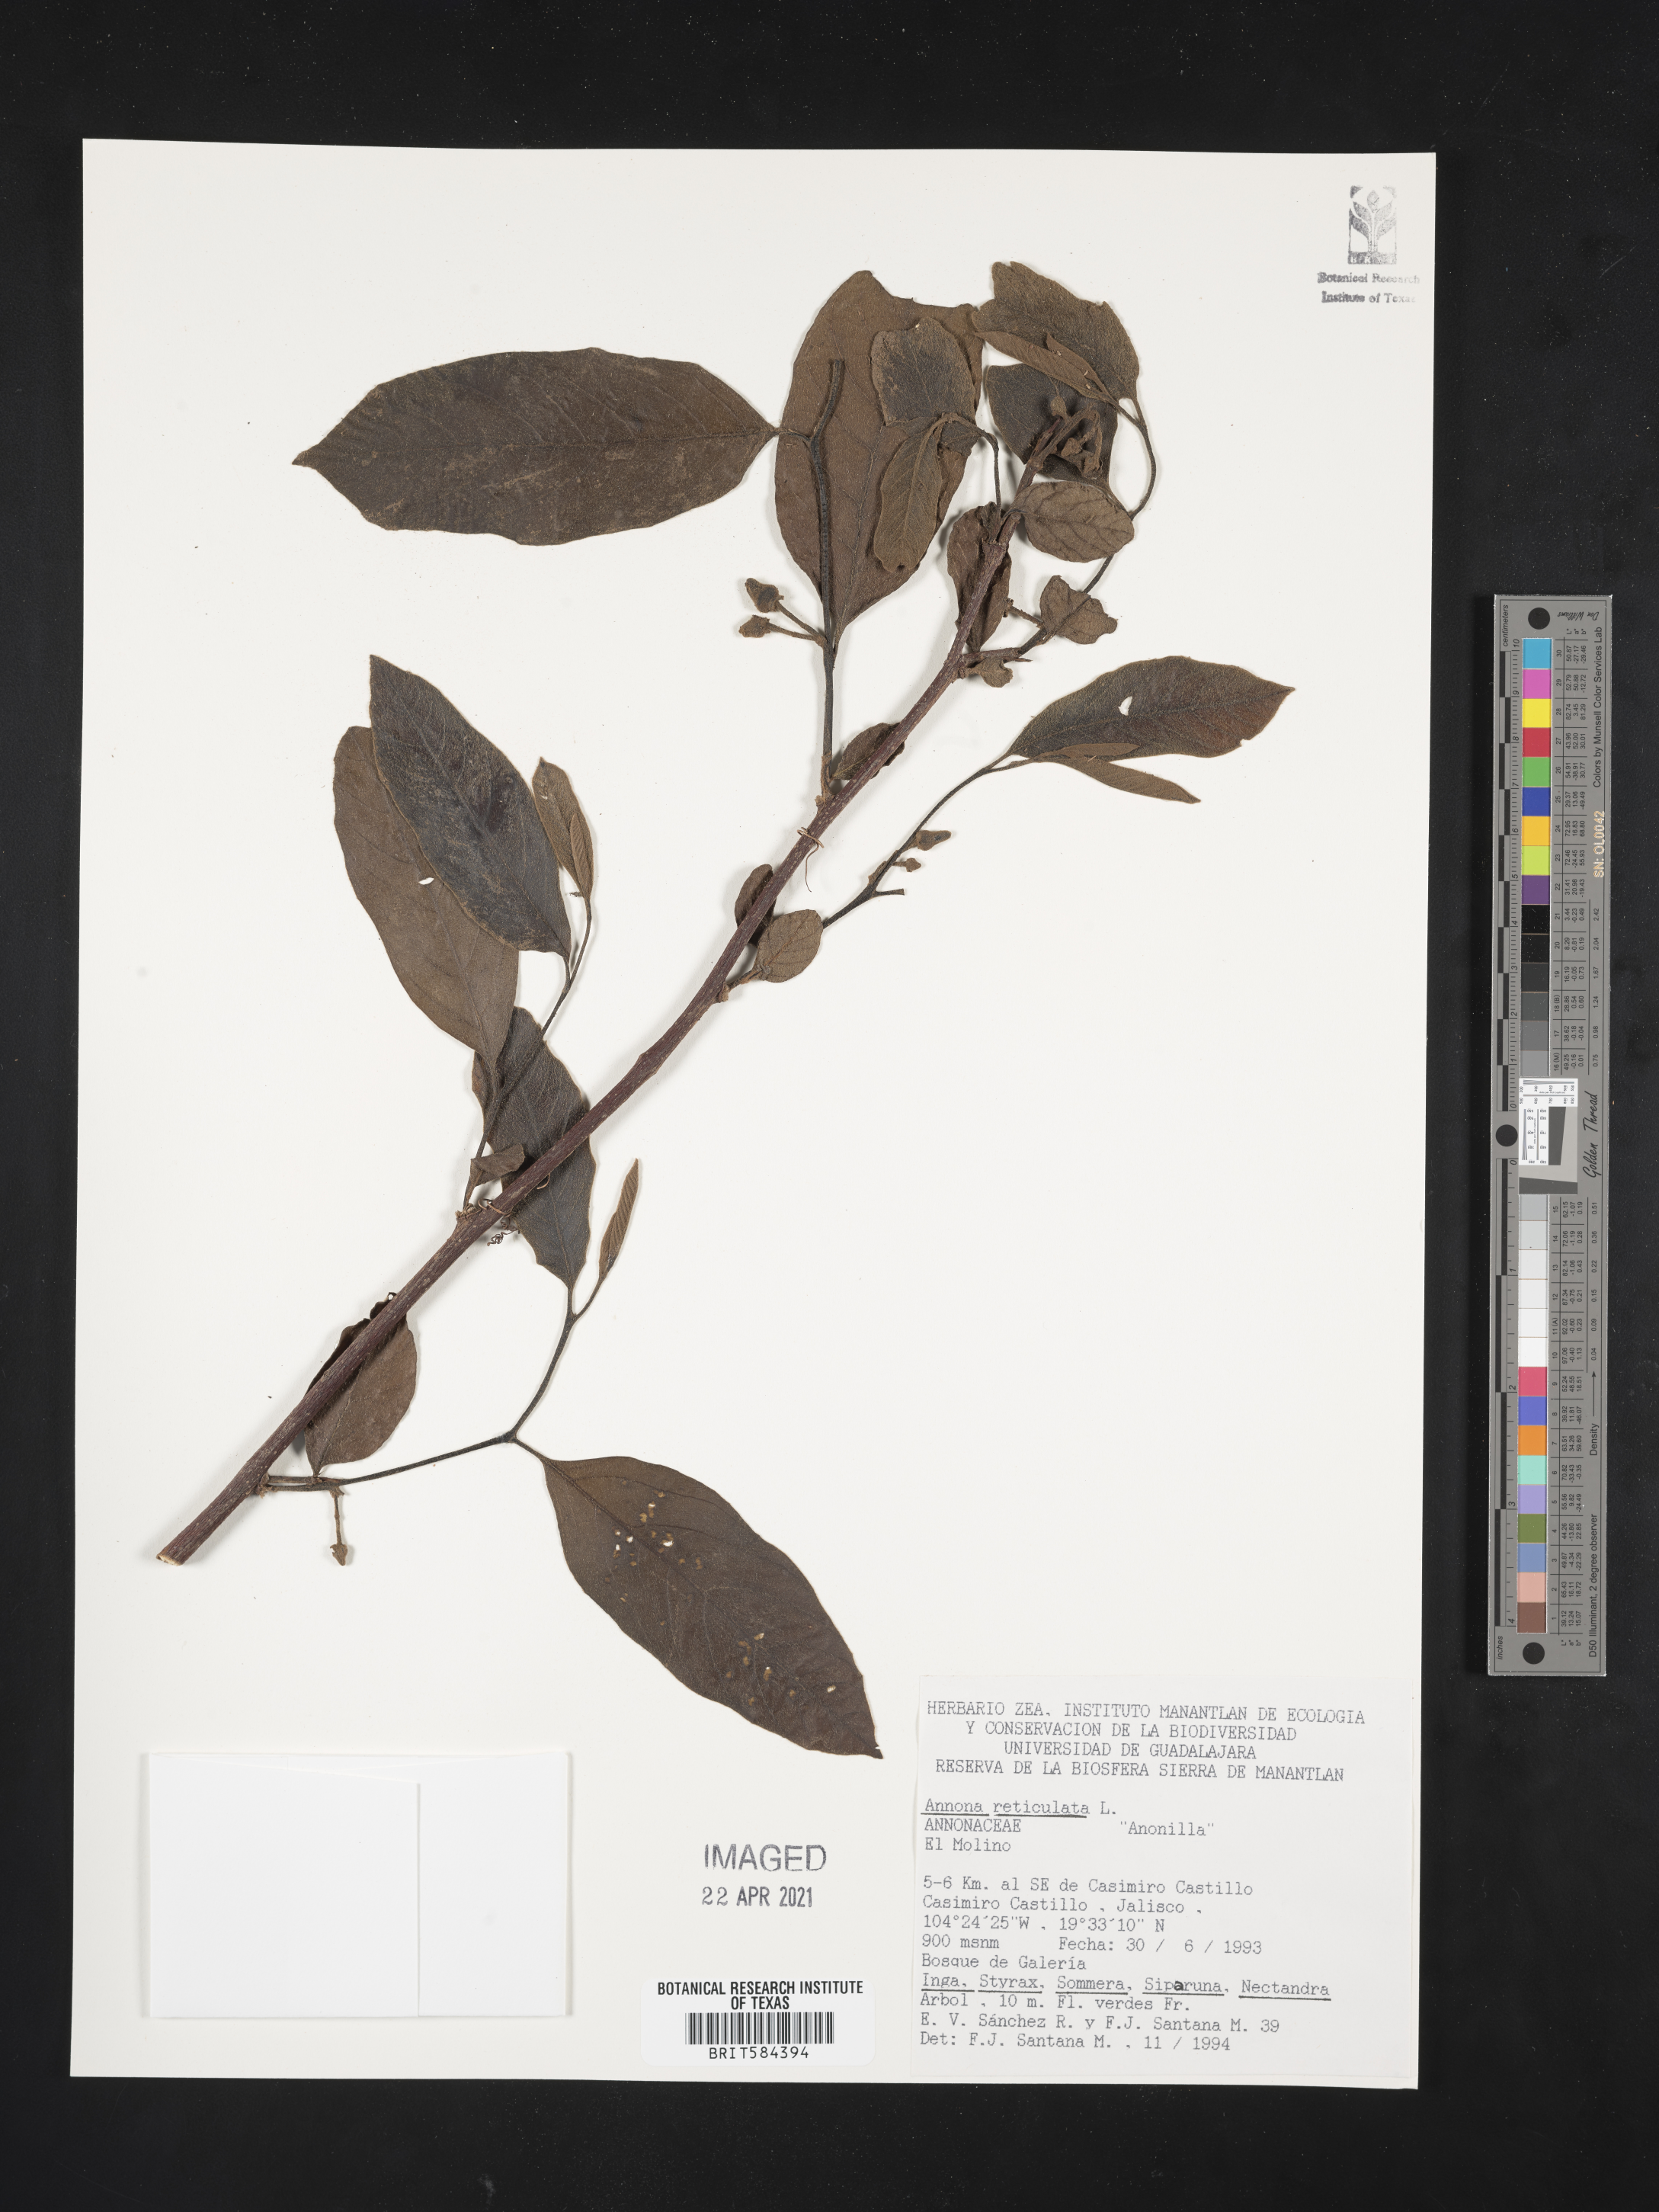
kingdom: Plantae
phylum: Tracheophyta
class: Magnoliopsida
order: Magnoliales
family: Annonaceae
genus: Annona
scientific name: Annona montana
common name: Mountain soursop
